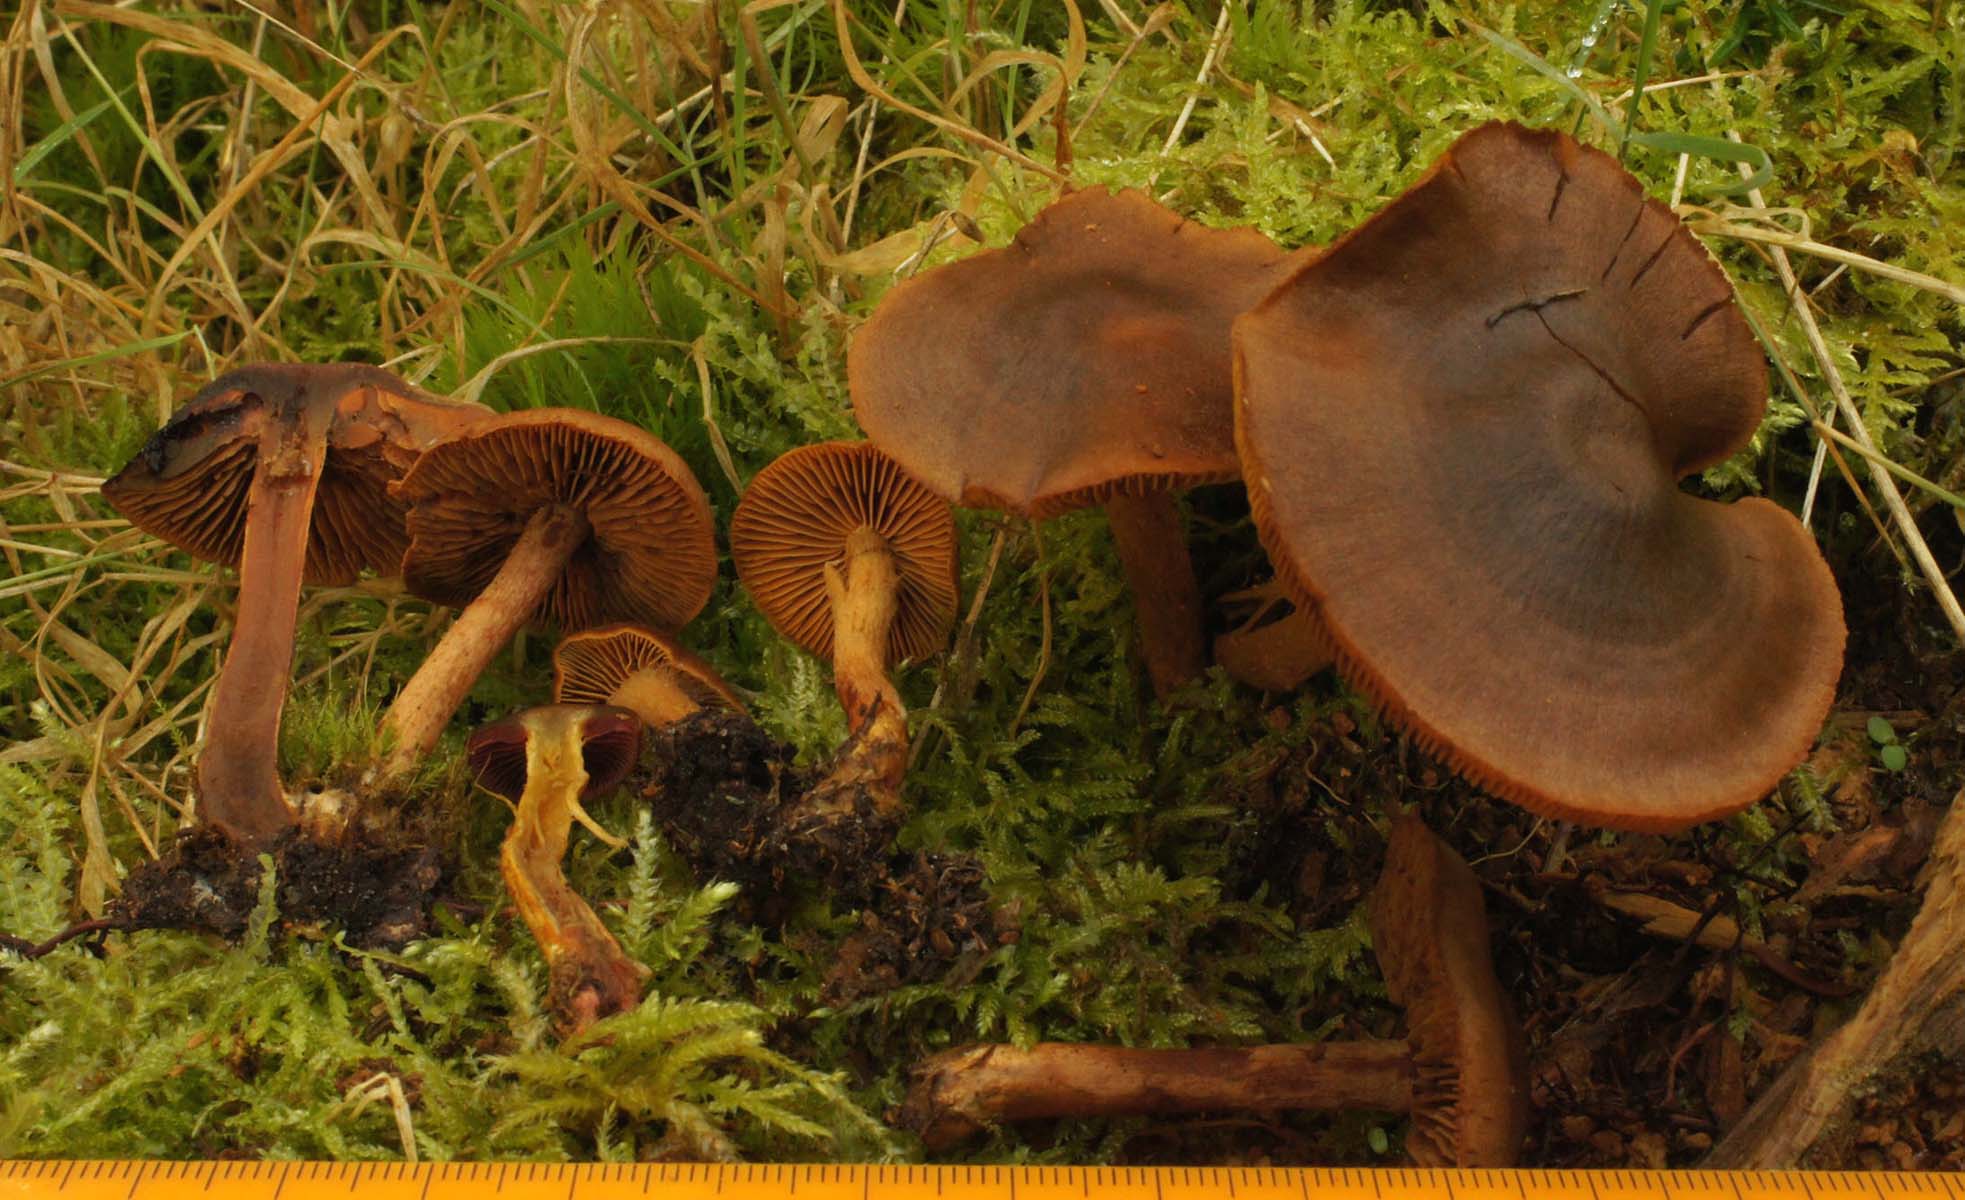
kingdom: Fungi
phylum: Basidiomycota
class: Agaricomycetes
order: Agaricales
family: Cortinariaceae
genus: Cortinarius
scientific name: Cortinarius
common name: cinnoberbladet slørhat
